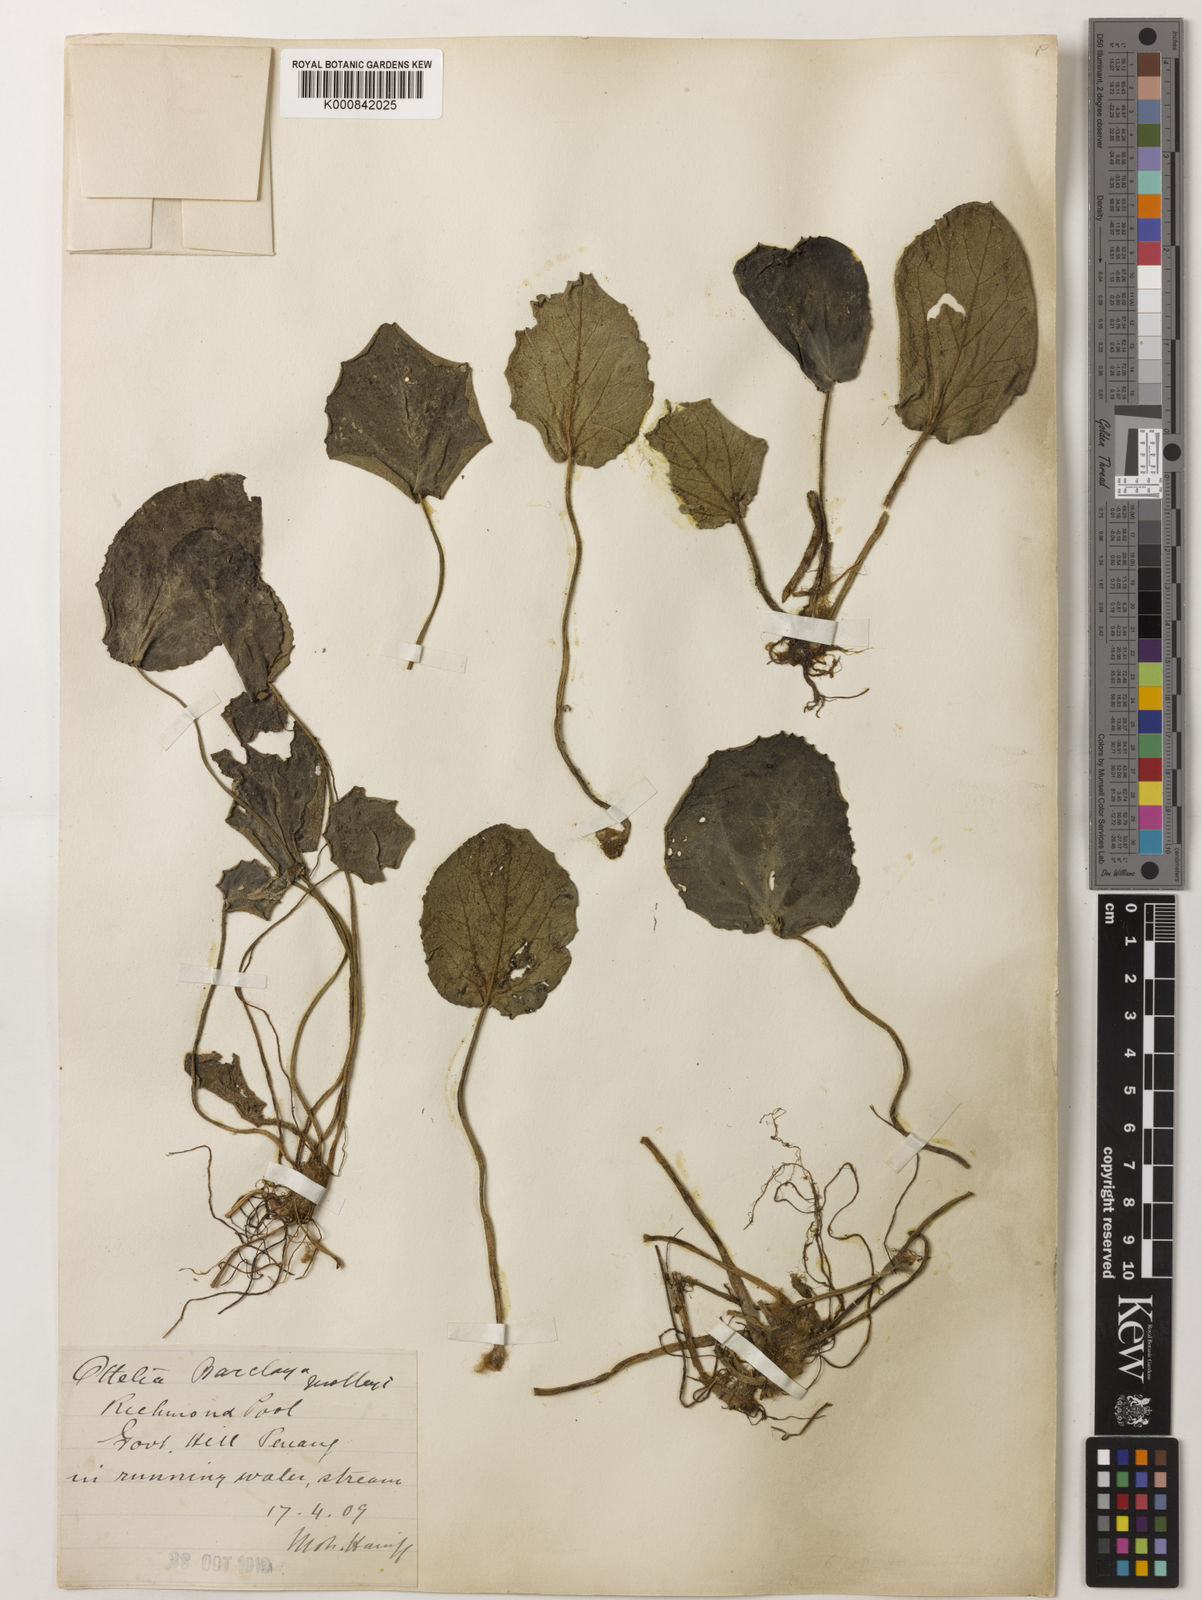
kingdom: Plantae
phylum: Tracheophyta
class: Magnoliopsida
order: Nymphaeales
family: Nymphaeaceae
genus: Barclaya
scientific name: Barclaya rotundifolia
